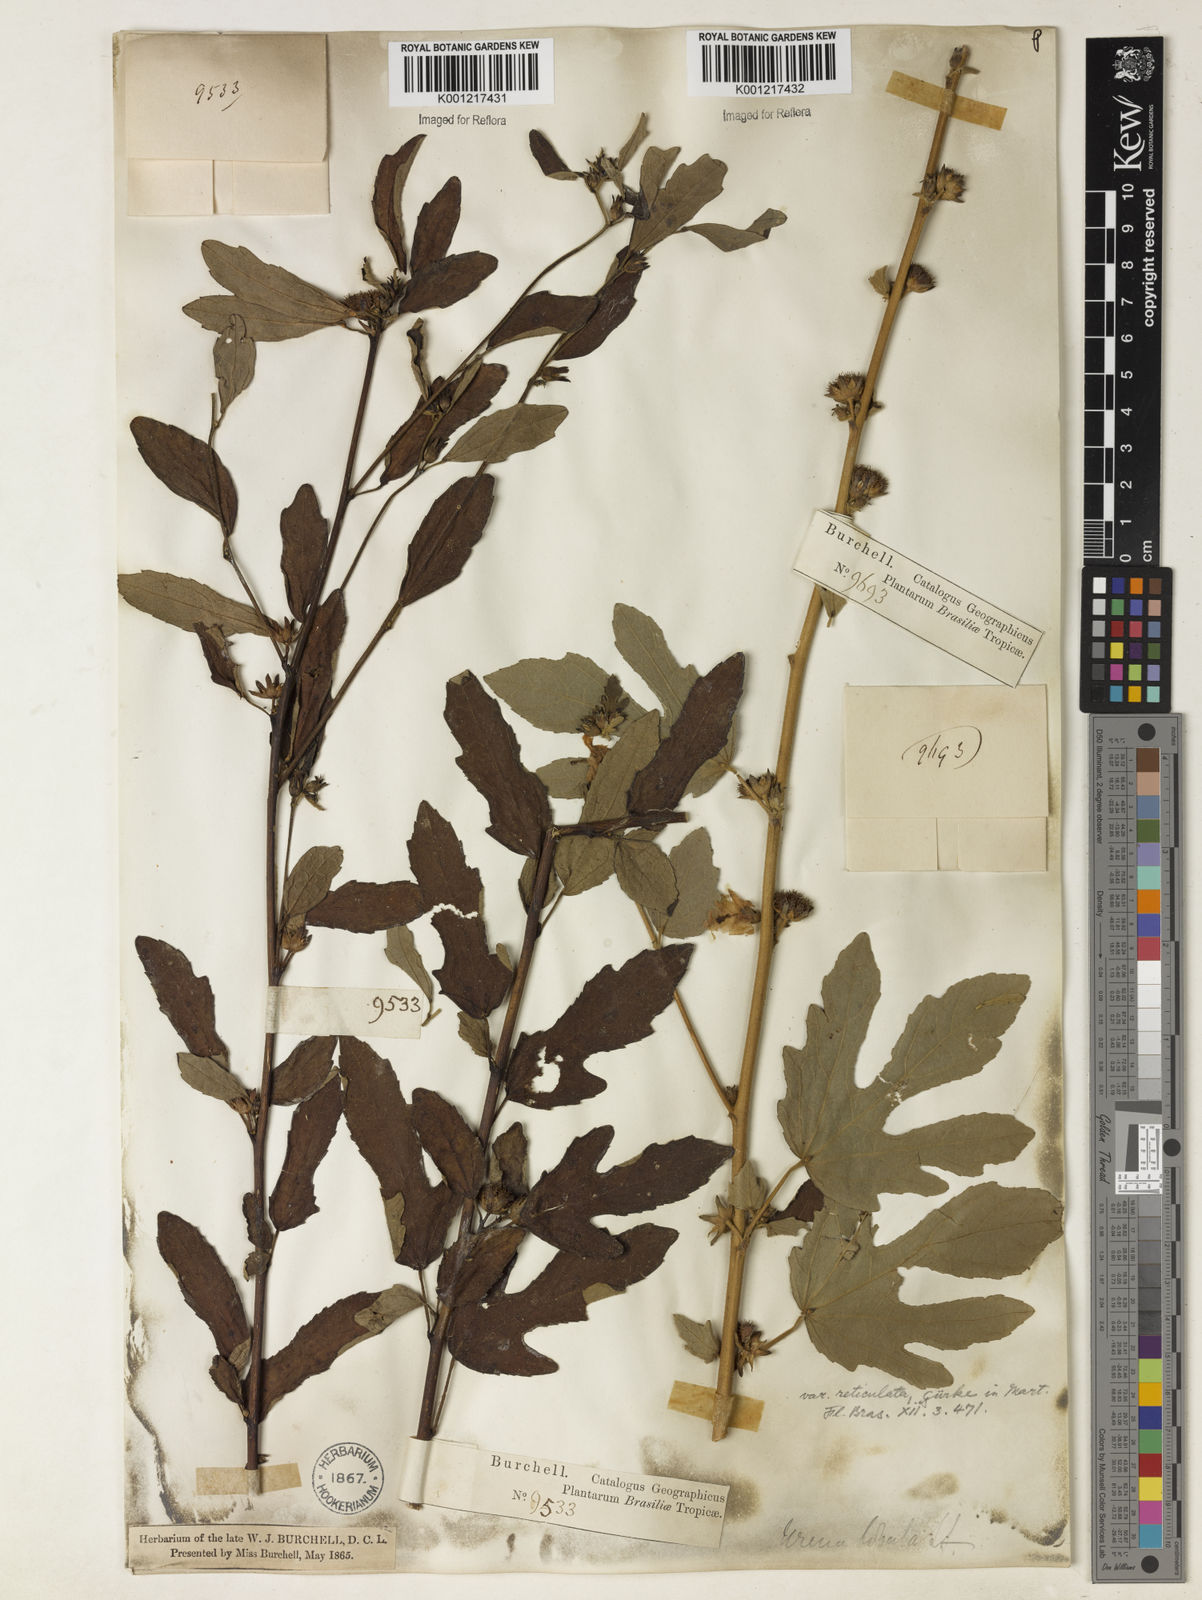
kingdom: Plantae
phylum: Tracheophyta
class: Magnoliopsida
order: Malvales
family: Malvaceae
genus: Urena
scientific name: Urena lobata
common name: Caesarweed
